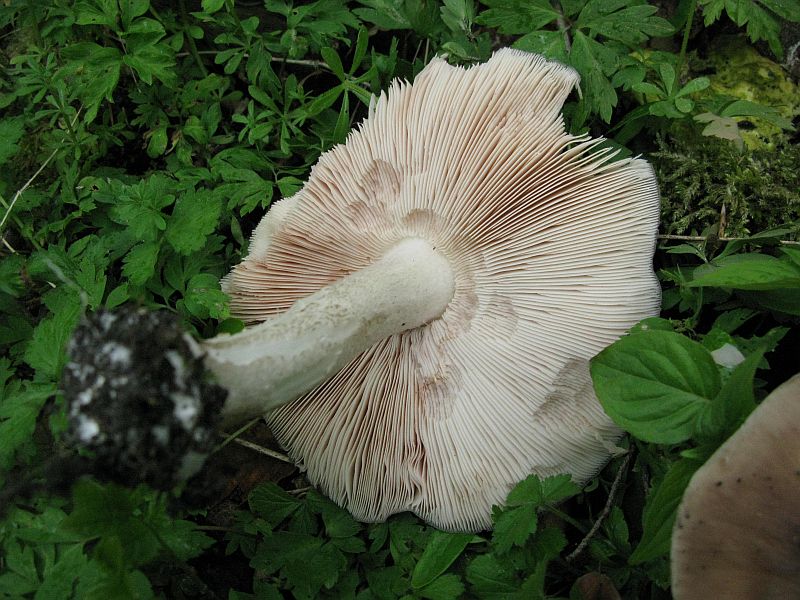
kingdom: Fungi
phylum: Basidiomycota
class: Agaricomycetes
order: Agaricales
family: Pluteaceae
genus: Pluteus
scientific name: Pluteus cervinus
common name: sodfarvet skærmhat
